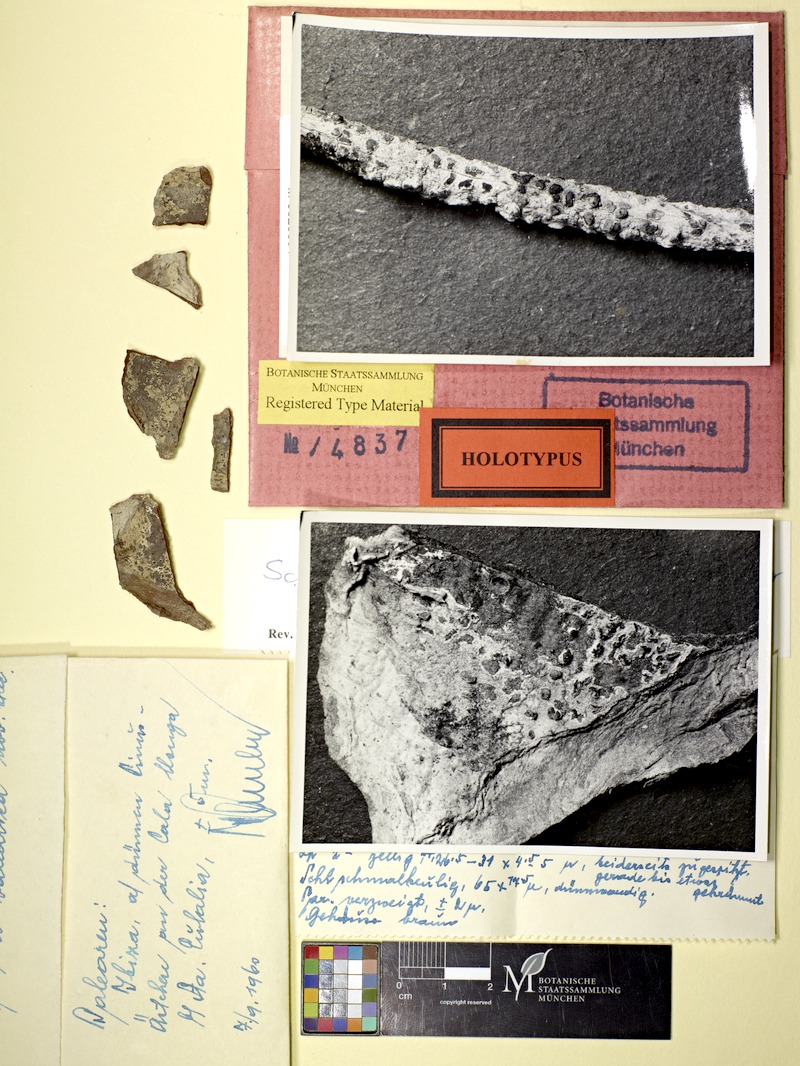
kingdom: Fungi
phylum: Ascomycota
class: Arthoniomycetes
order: Arthoniales
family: Roccellaceae
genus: Diromma
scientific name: Diromma dirinellum
